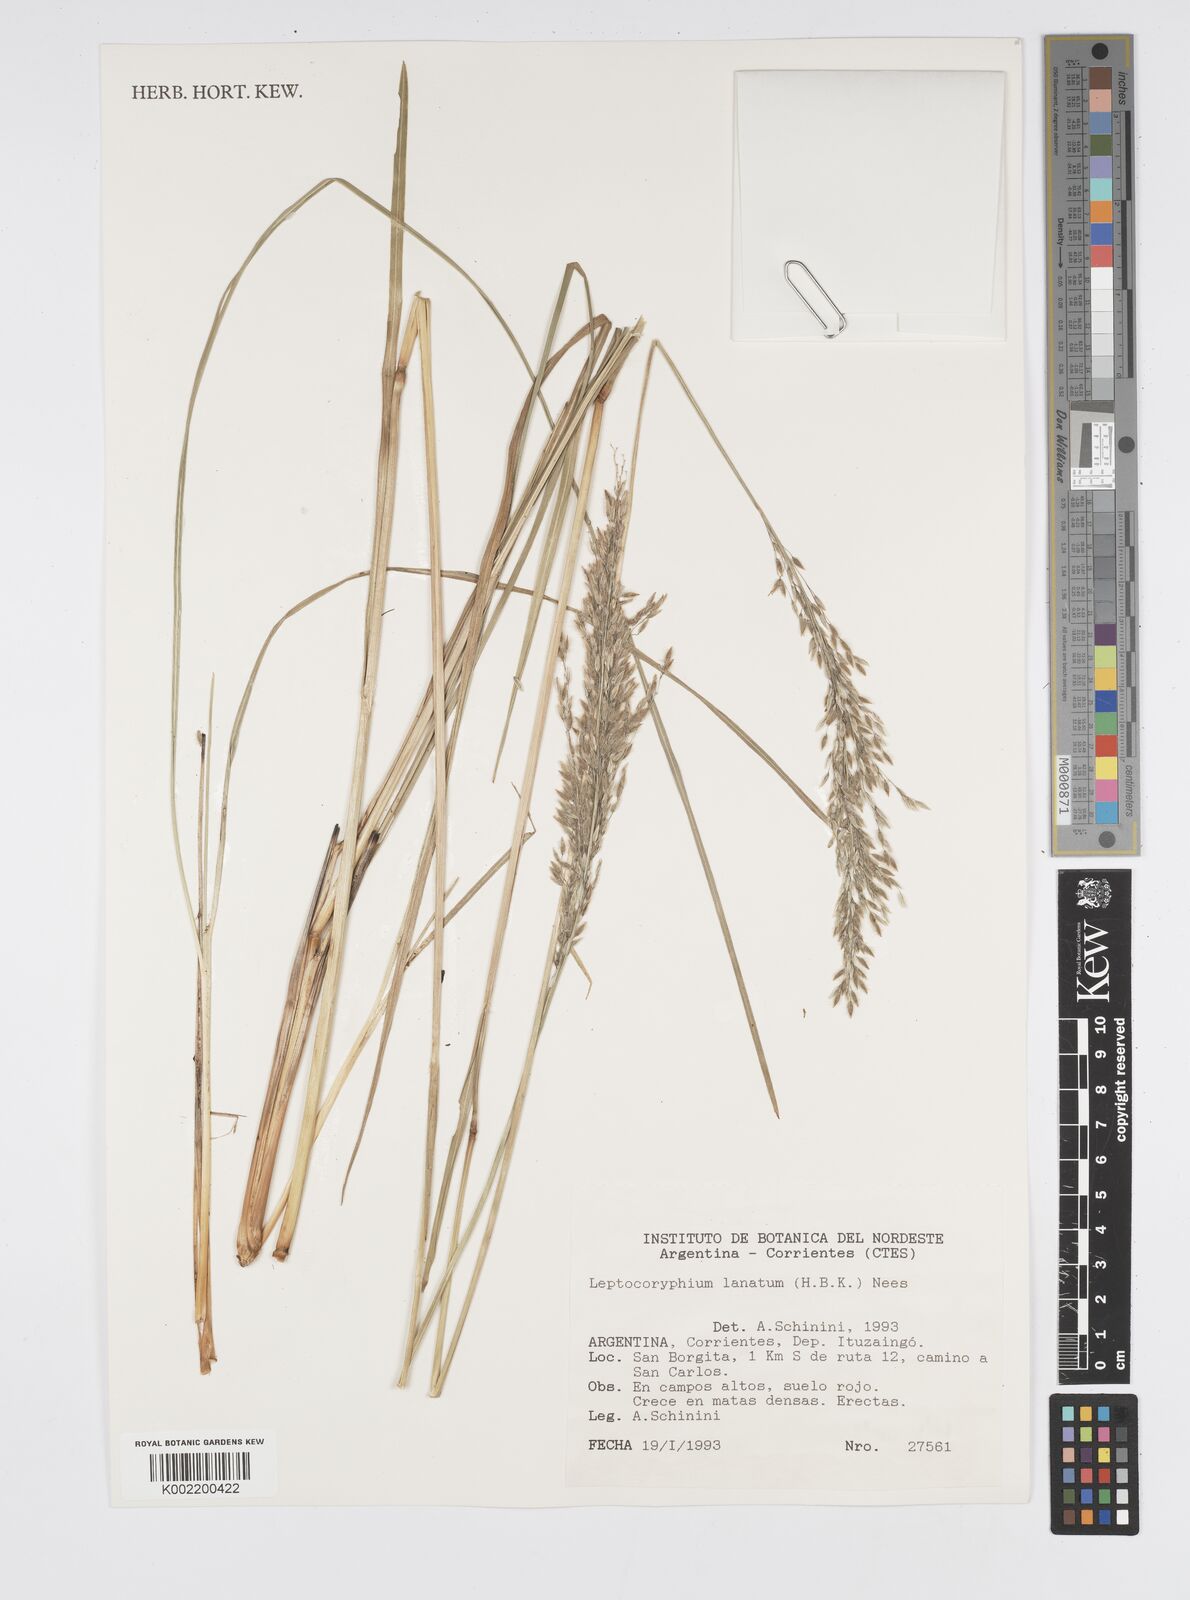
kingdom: Plantae
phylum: Tracheophyta
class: Liliopsida
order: Poales
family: Poaceae
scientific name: Poaceae
